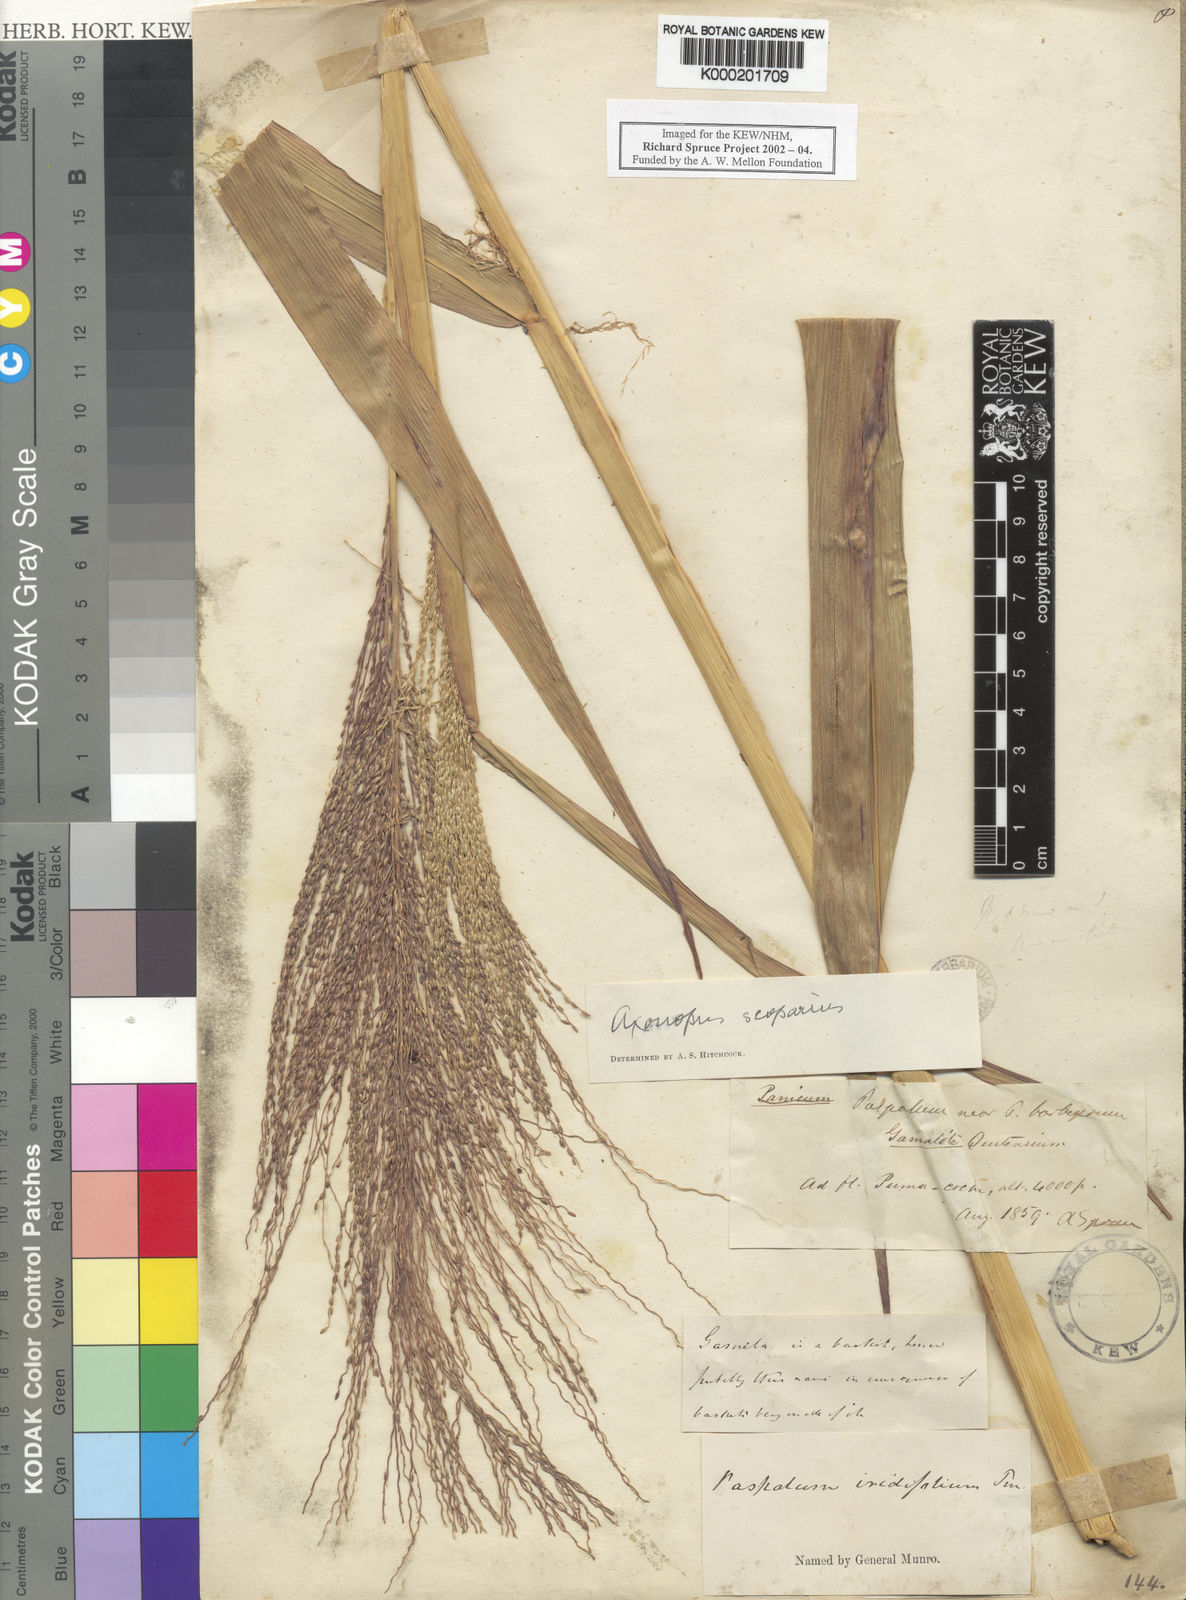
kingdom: Plantae
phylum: Tracheophyta
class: Liliopsida
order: Poales
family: Poaceae
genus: Axonopus
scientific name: Axonopus
